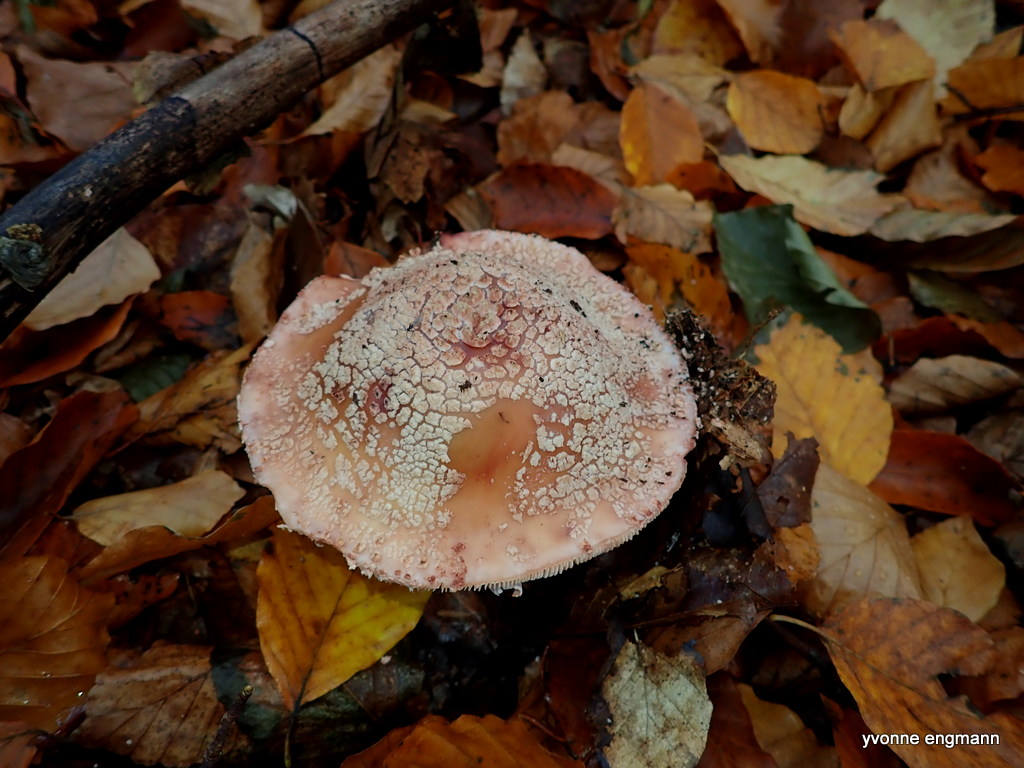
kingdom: Fungi
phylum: Basidiomycota
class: Agaricomycetes
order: Agaricales
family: Amanitaceae
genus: Amanita
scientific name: Amanita rubescens
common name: rødmende fluesvamp
